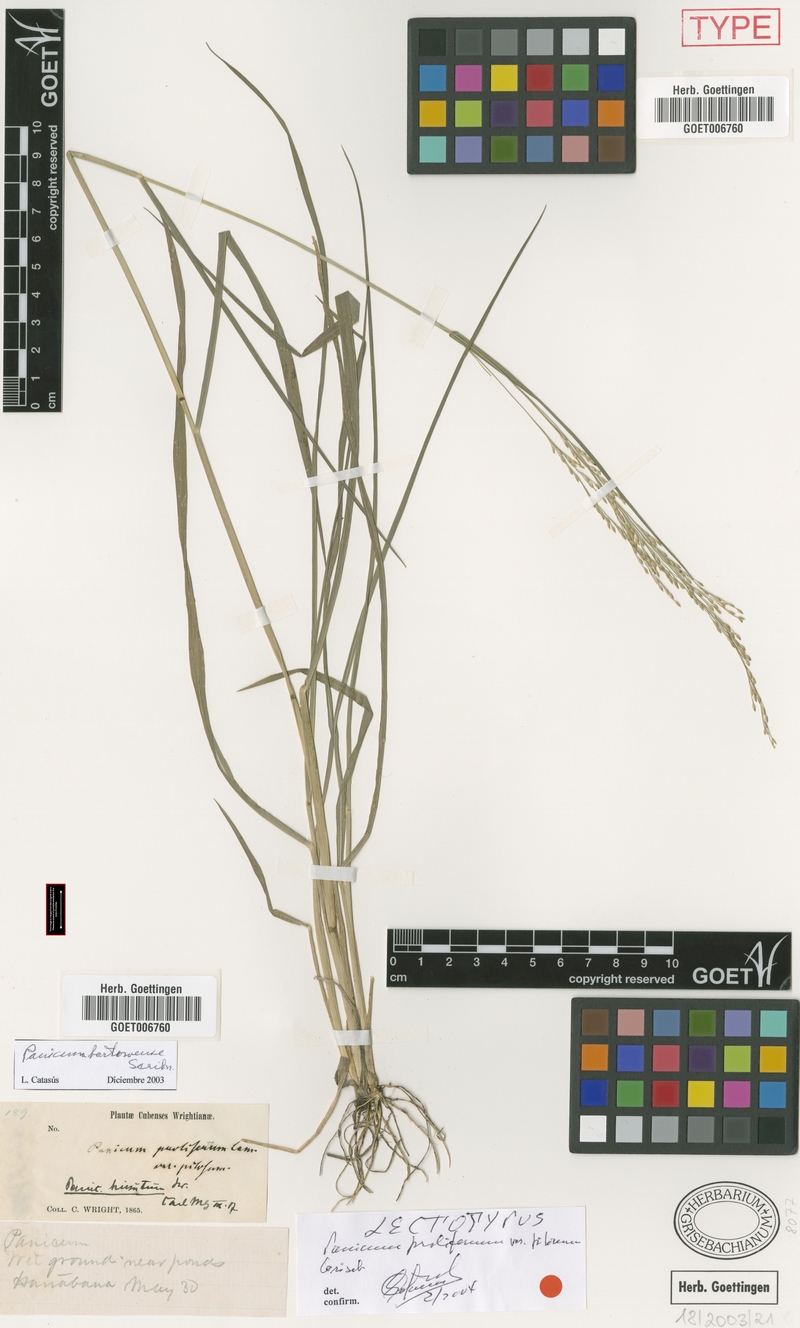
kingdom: Plantae
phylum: Tracheophyta
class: Liliopsida
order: Poales
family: Poaceae
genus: Panicum
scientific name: Panicum bartowense
